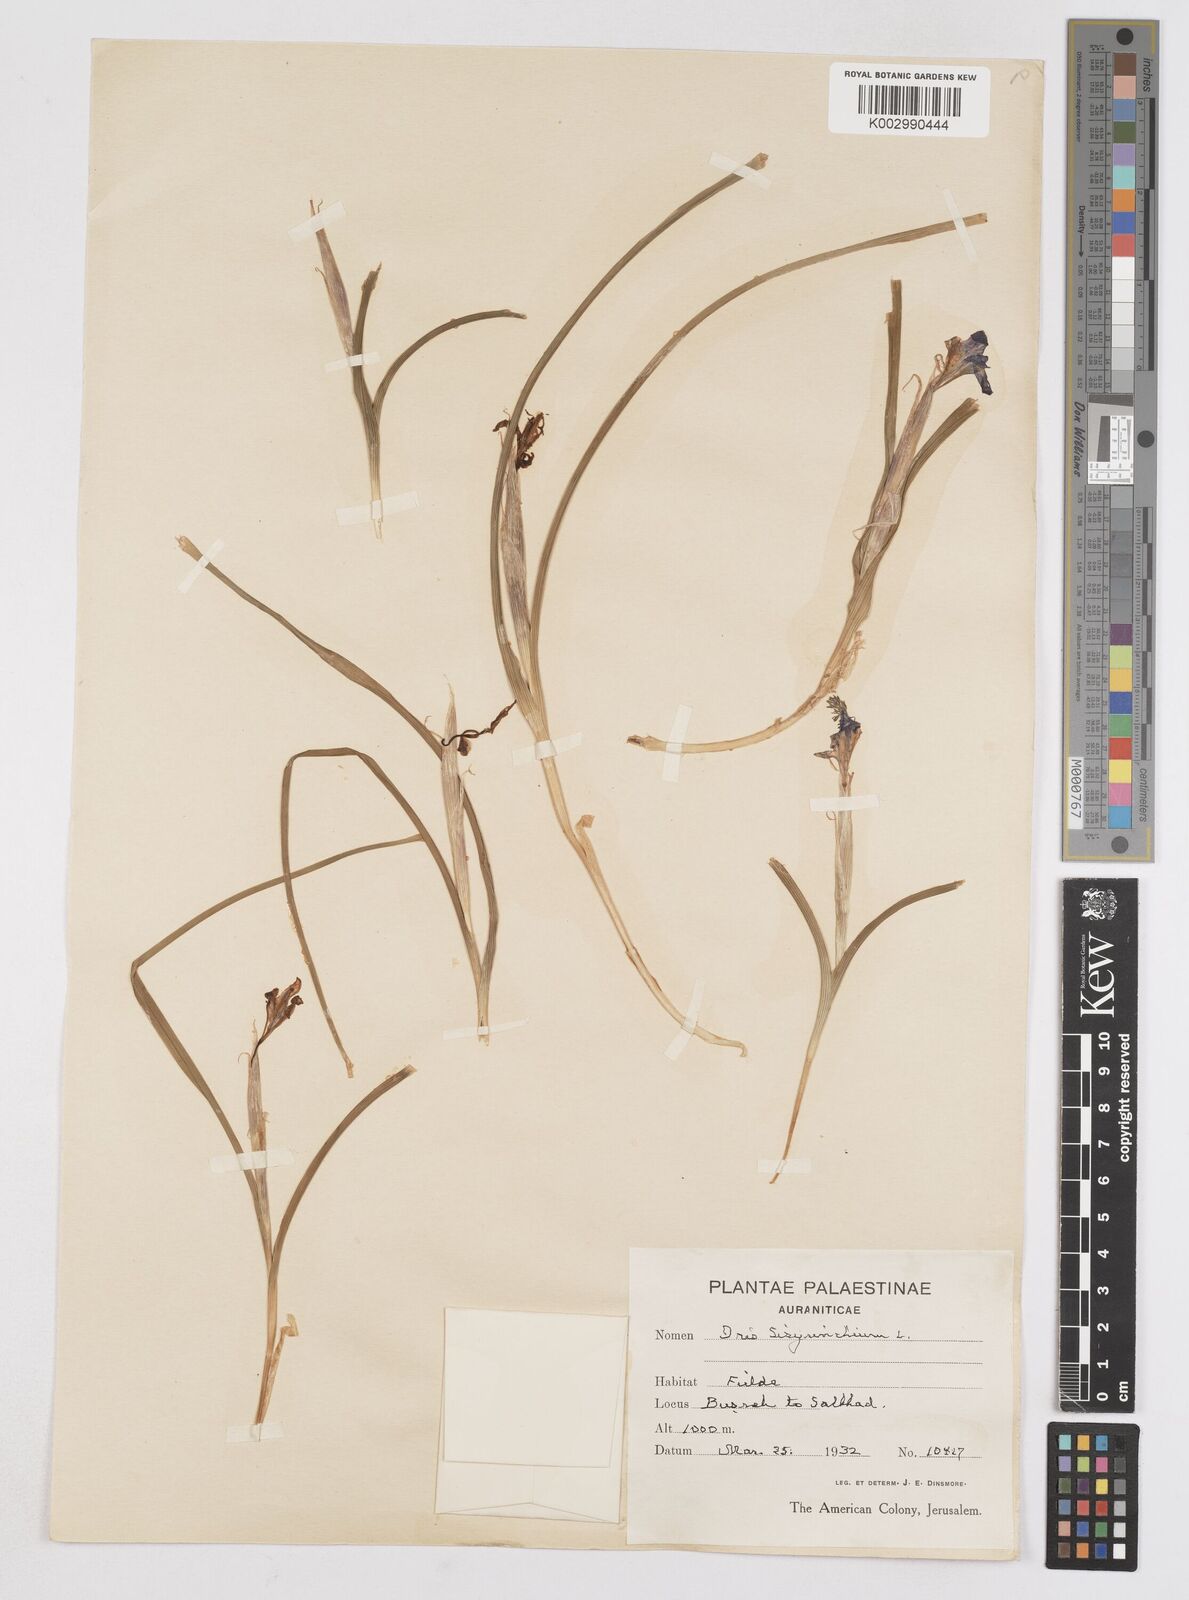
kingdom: Plantae
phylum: Tracheophyta
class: Liliopsida
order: Asparagales
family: Iridaceae
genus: Moraea
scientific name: Moraea sisyrinchium
